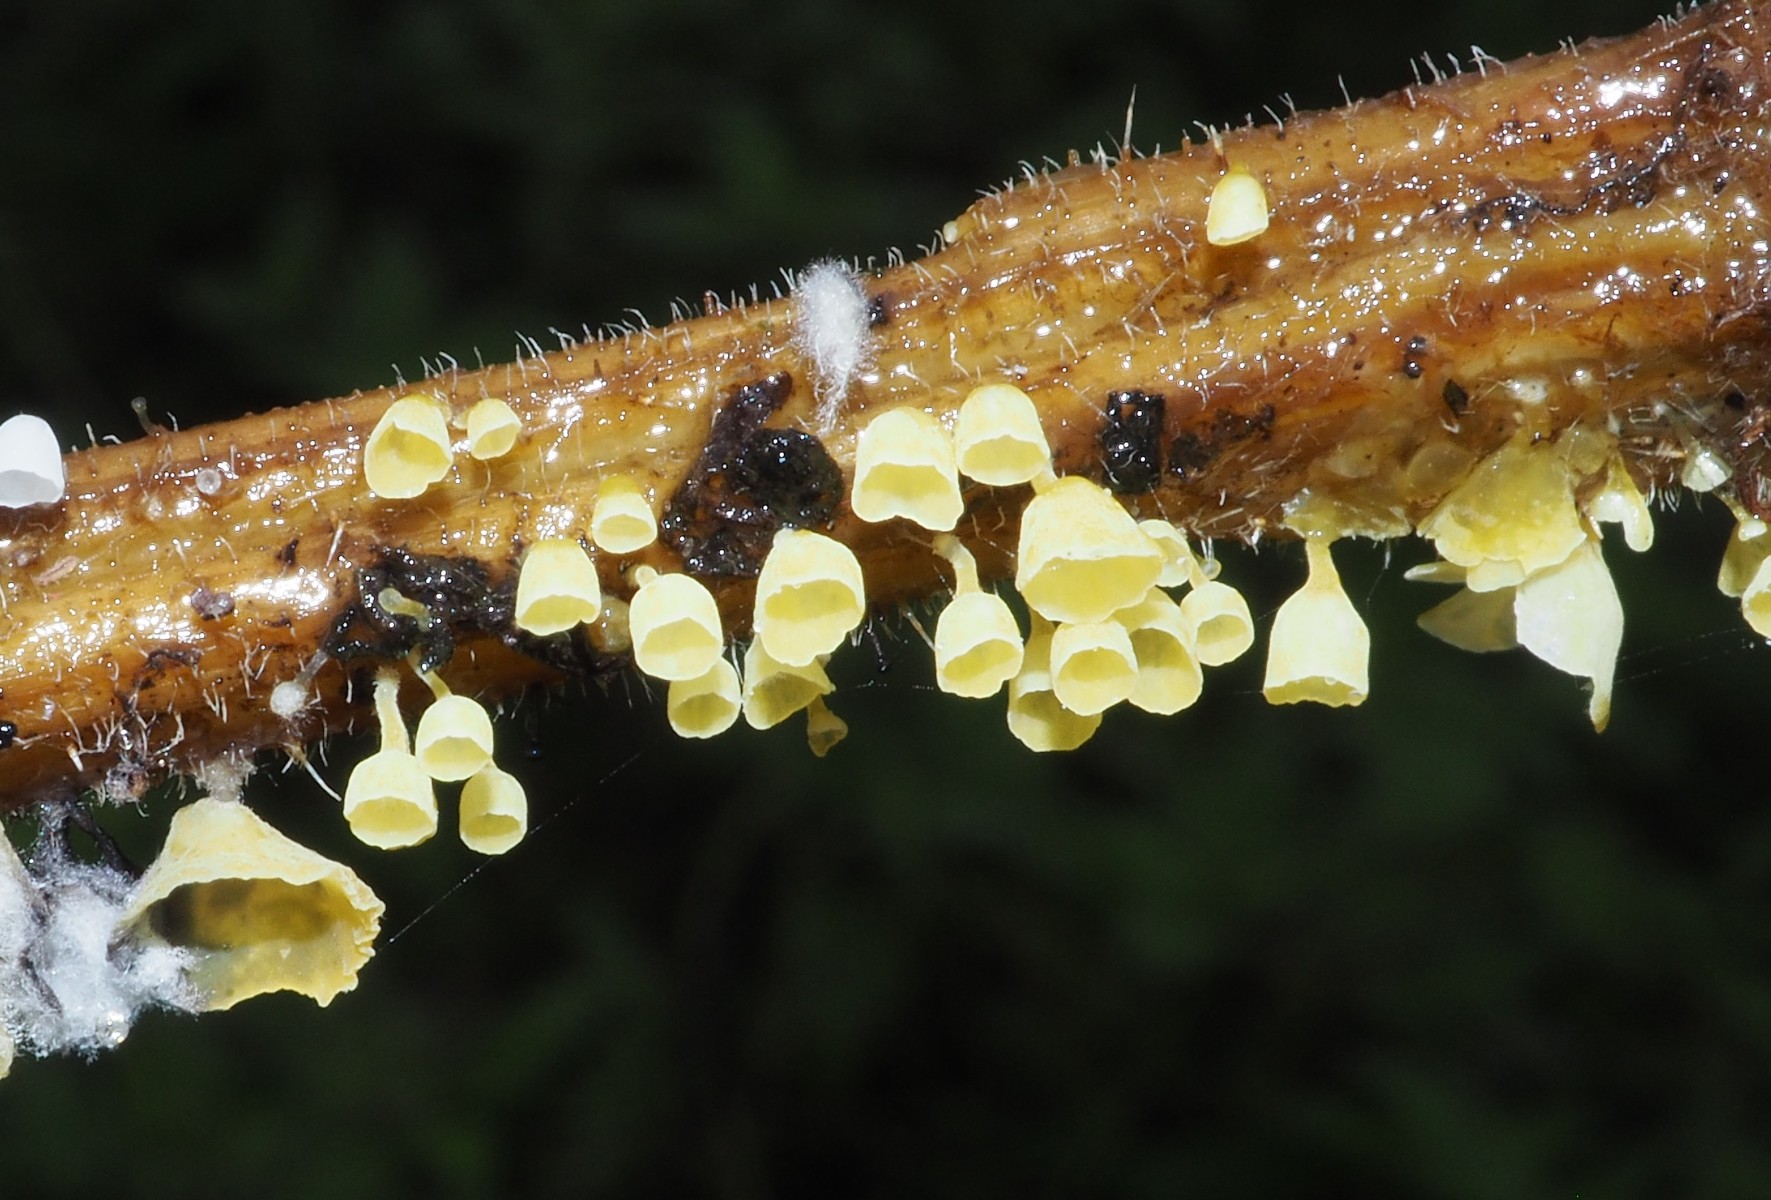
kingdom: Fungi
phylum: Basidiomycota
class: Agaricomycetes
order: Agaricales
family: Marasmiaceae
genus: Calyptella
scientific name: Calyptella campanula
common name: gul nældehue
